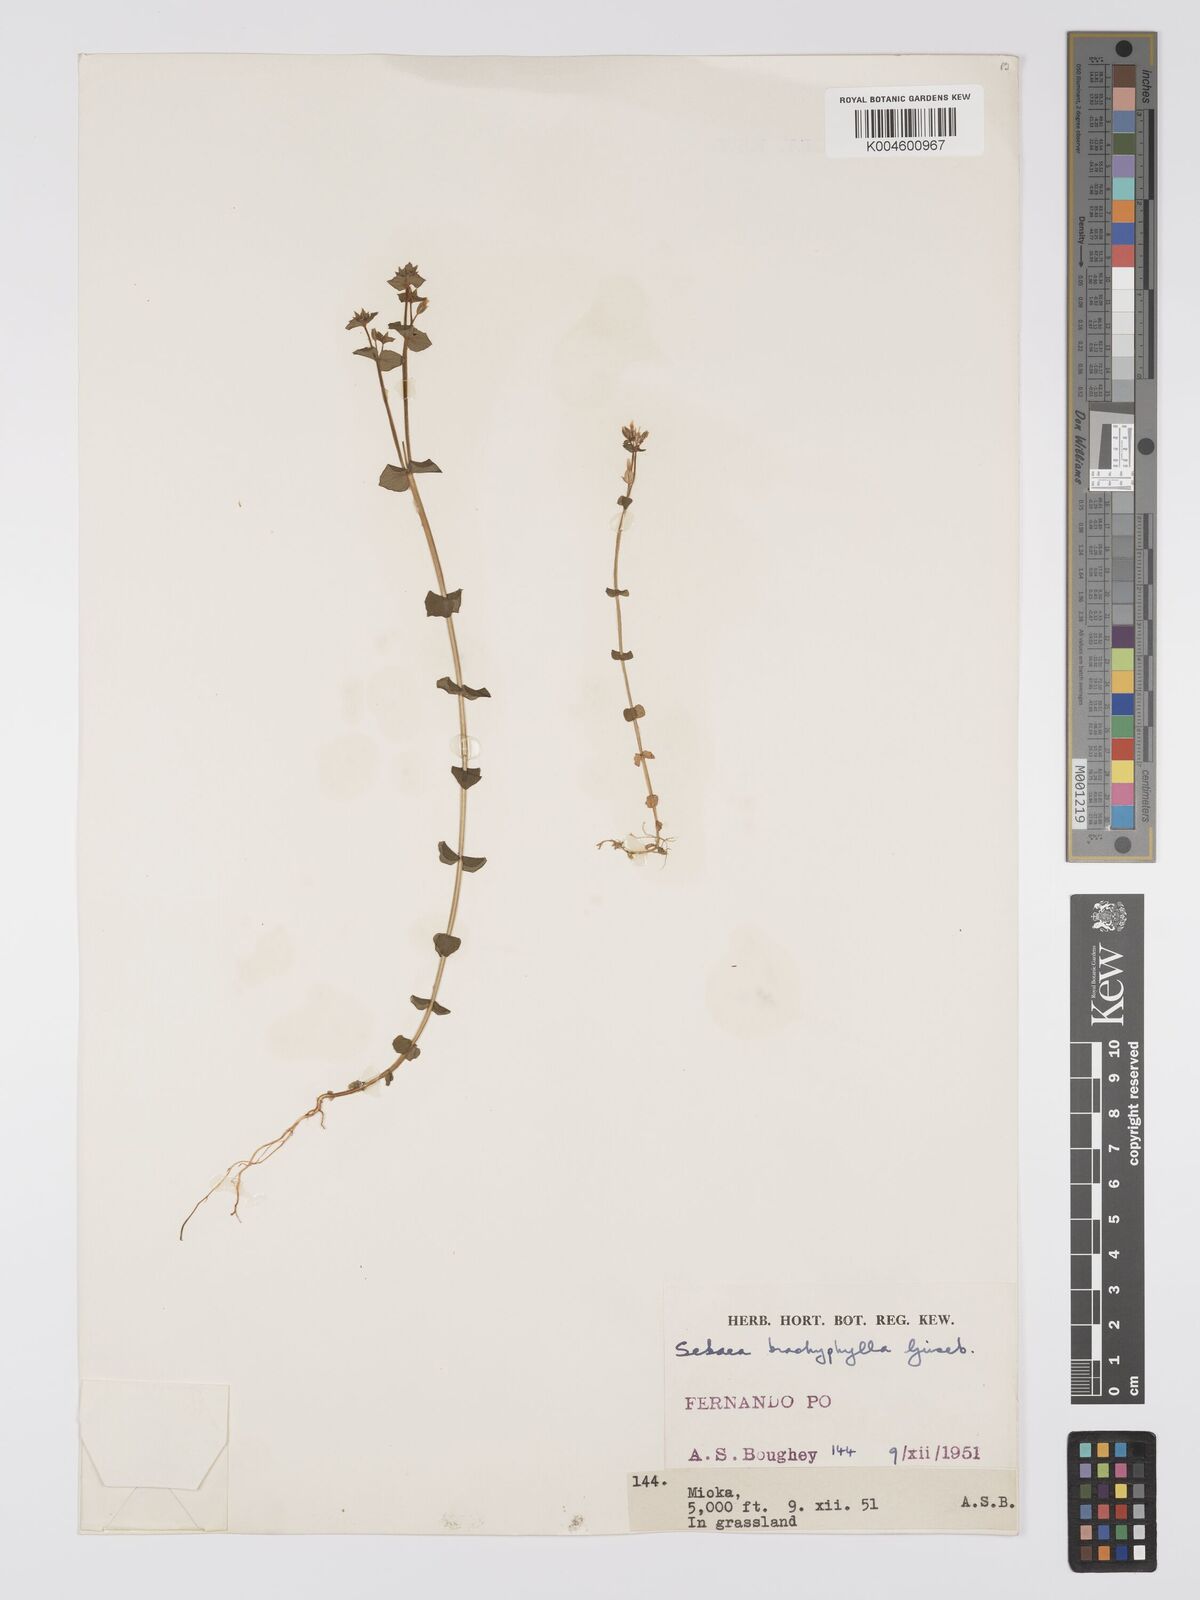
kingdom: Plantae
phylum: Tracheophyta
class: Magnoliopsida
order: Gentianales
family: Gentianaceae
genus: Sebaea
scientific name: Sebaea brachyphylla
